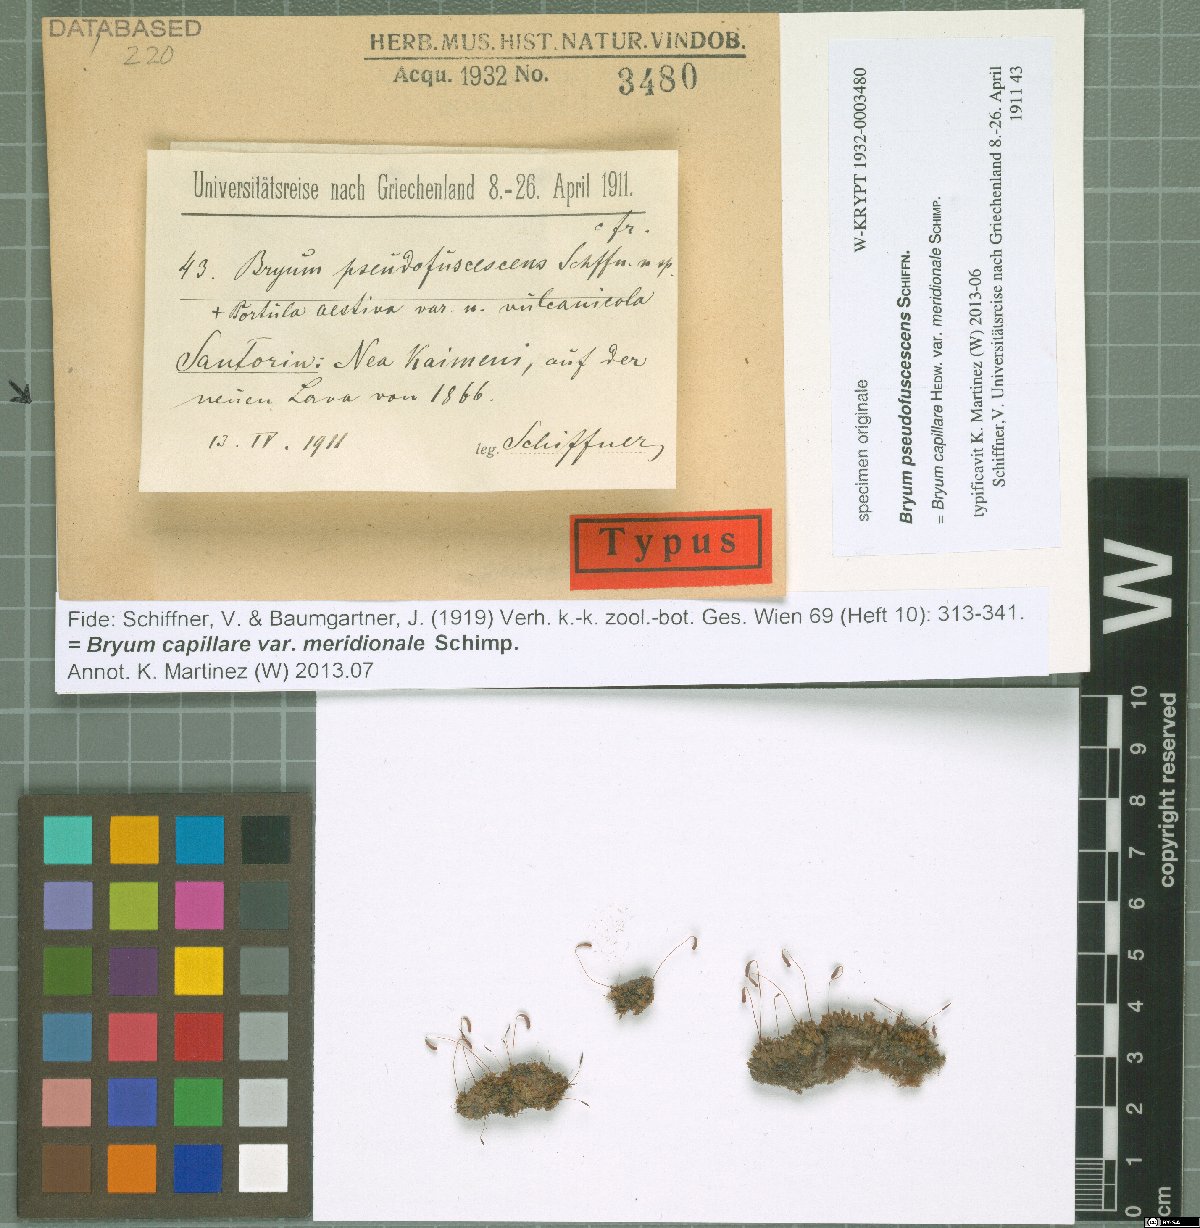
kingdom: Plantae
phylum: Bryophyta
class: Bryopsida
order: Bryales
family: Bryaceae
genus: Bryum
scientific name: Bryum
